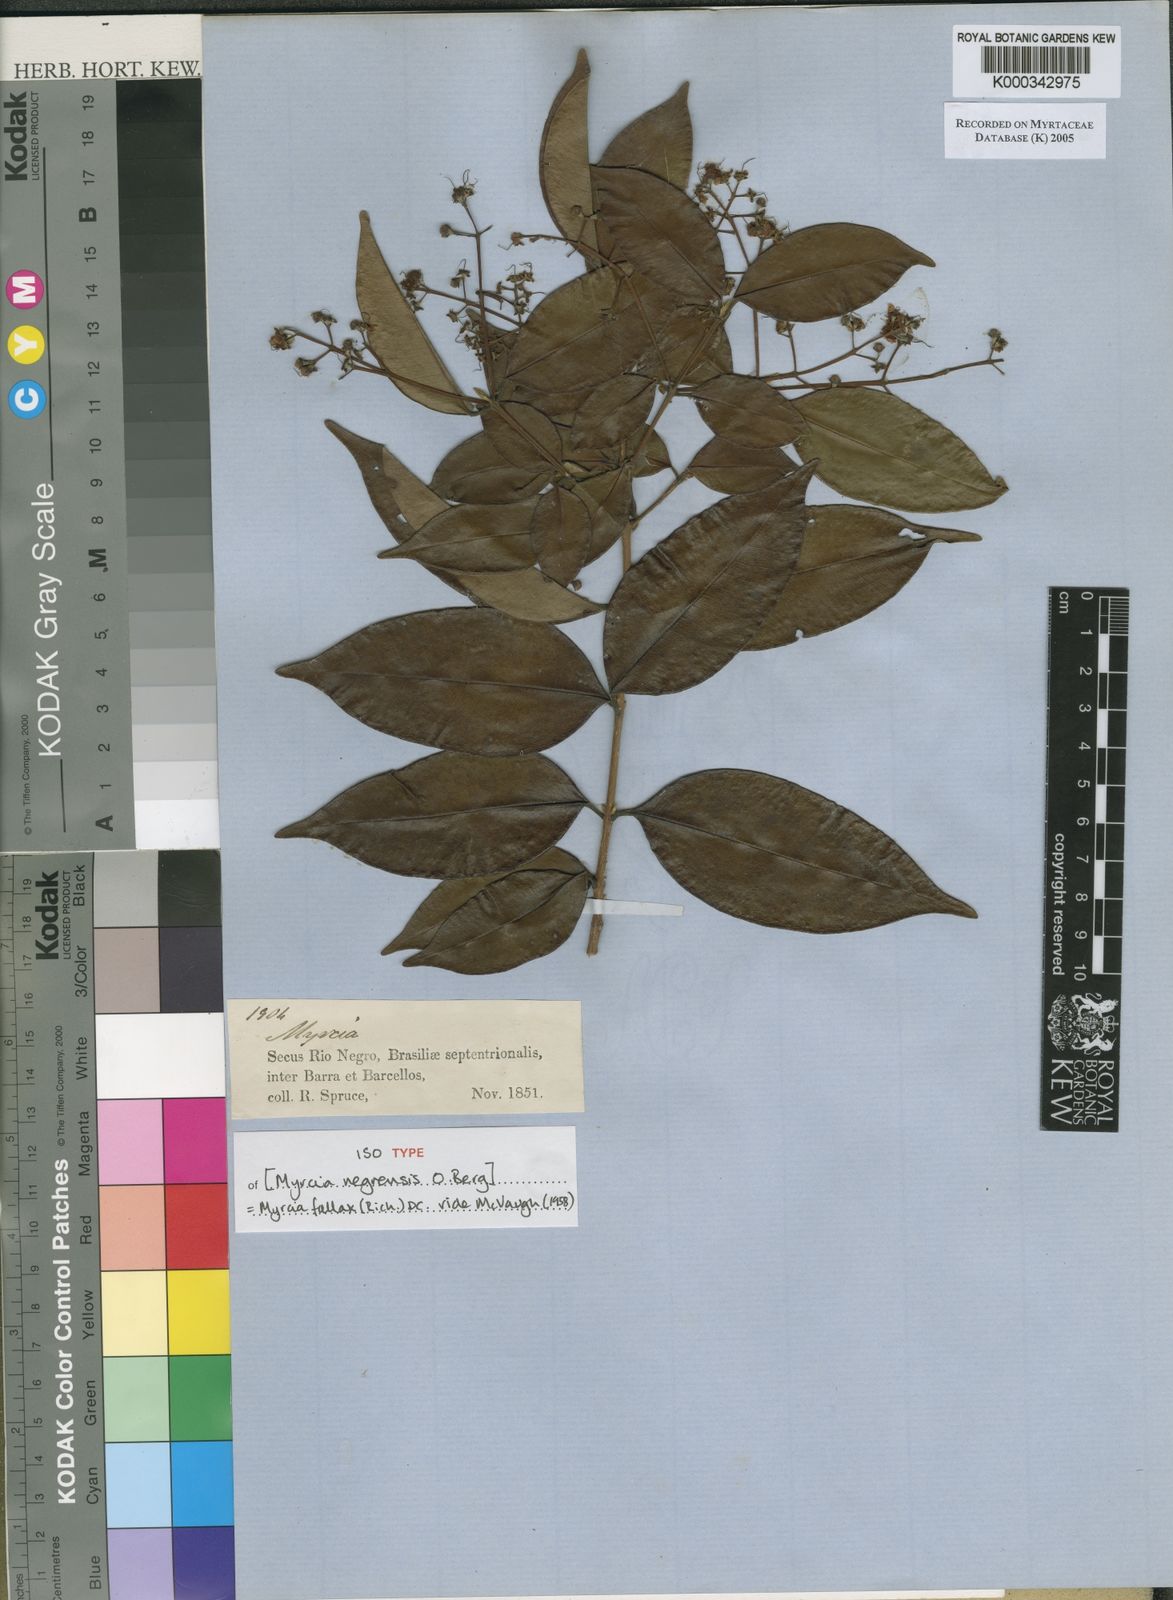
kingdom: Plantae
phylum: Tracheophyta
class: Magnoliopsida
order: Myrtales
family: Myrtaceae
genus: Myrcia
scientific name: Myrcia splendens
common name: Surinam cherry
